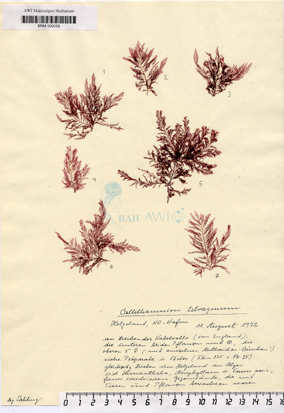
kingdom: Plantae
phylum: Rhodophyta
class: Florideophyceae
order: Ceramiales
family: Callithamniaceae
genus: Callithamnion
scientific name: Callithamnion tetragonum
